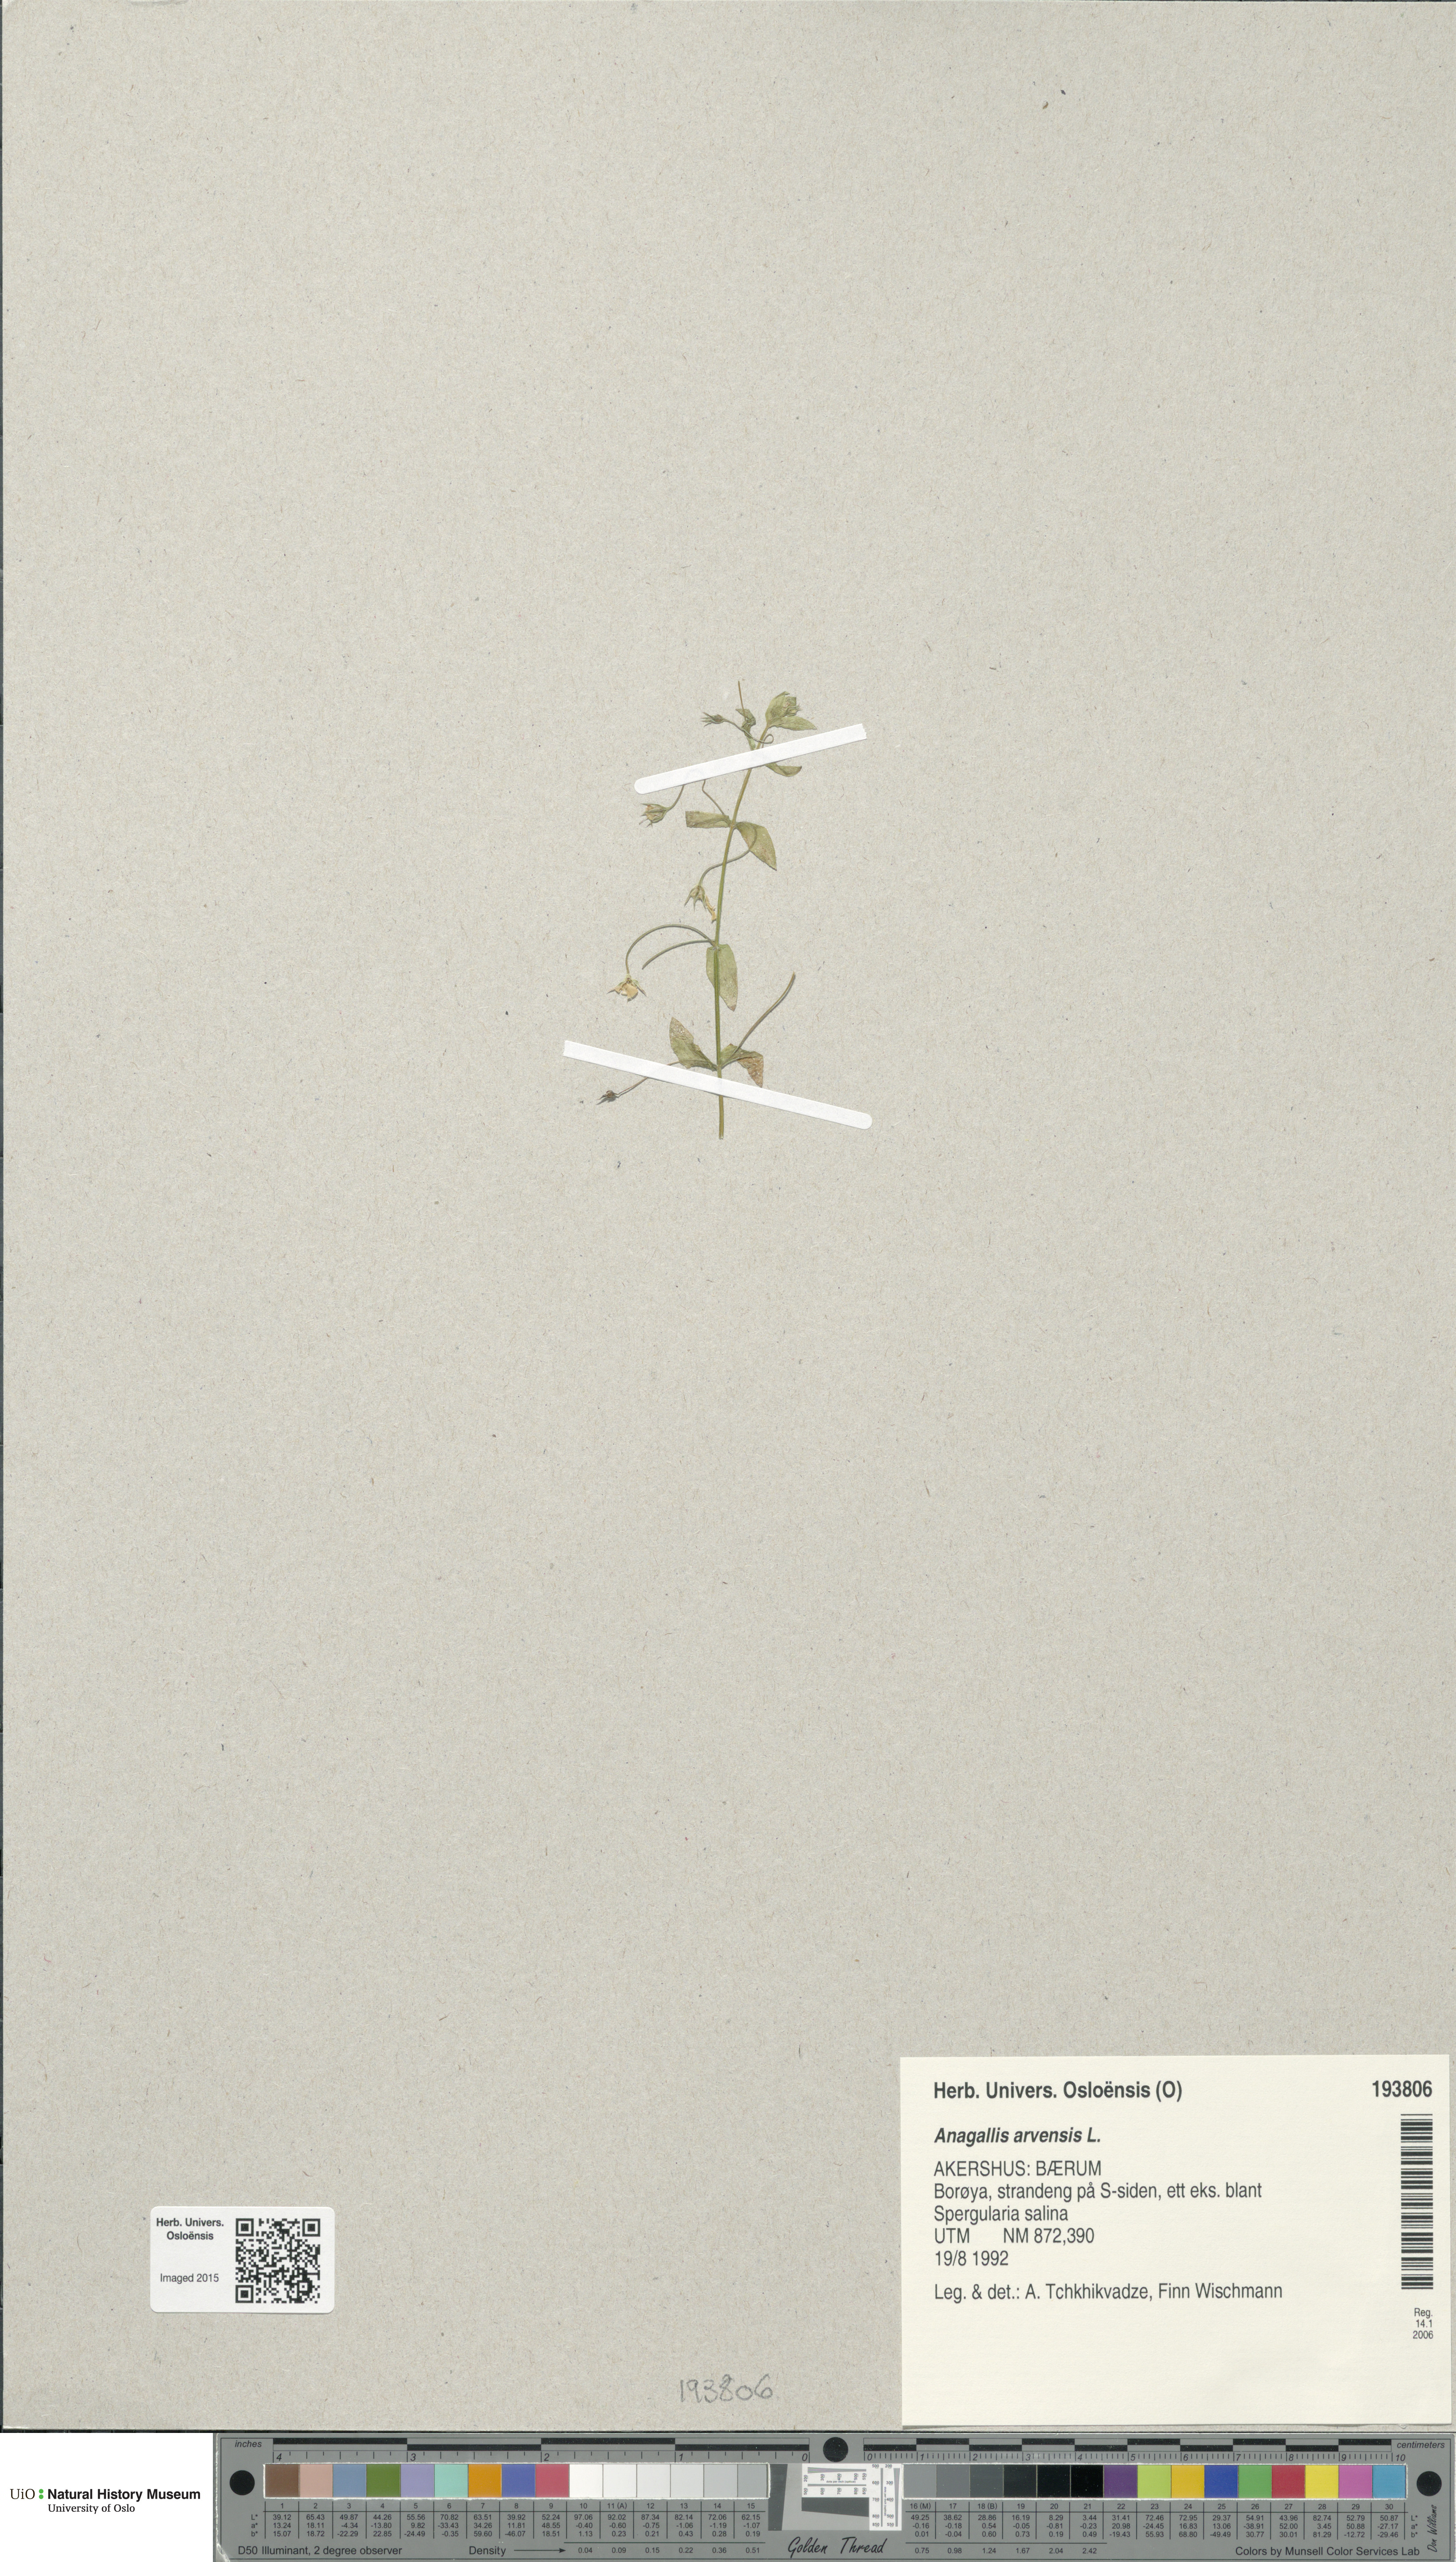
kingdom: Plantae
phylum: Tracheophyta
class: Magnoliopsida
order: Ericales
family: Primulaceae
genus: Lysimachia
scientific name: Lysimachia arvensis
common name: Scarlet pimpernel
